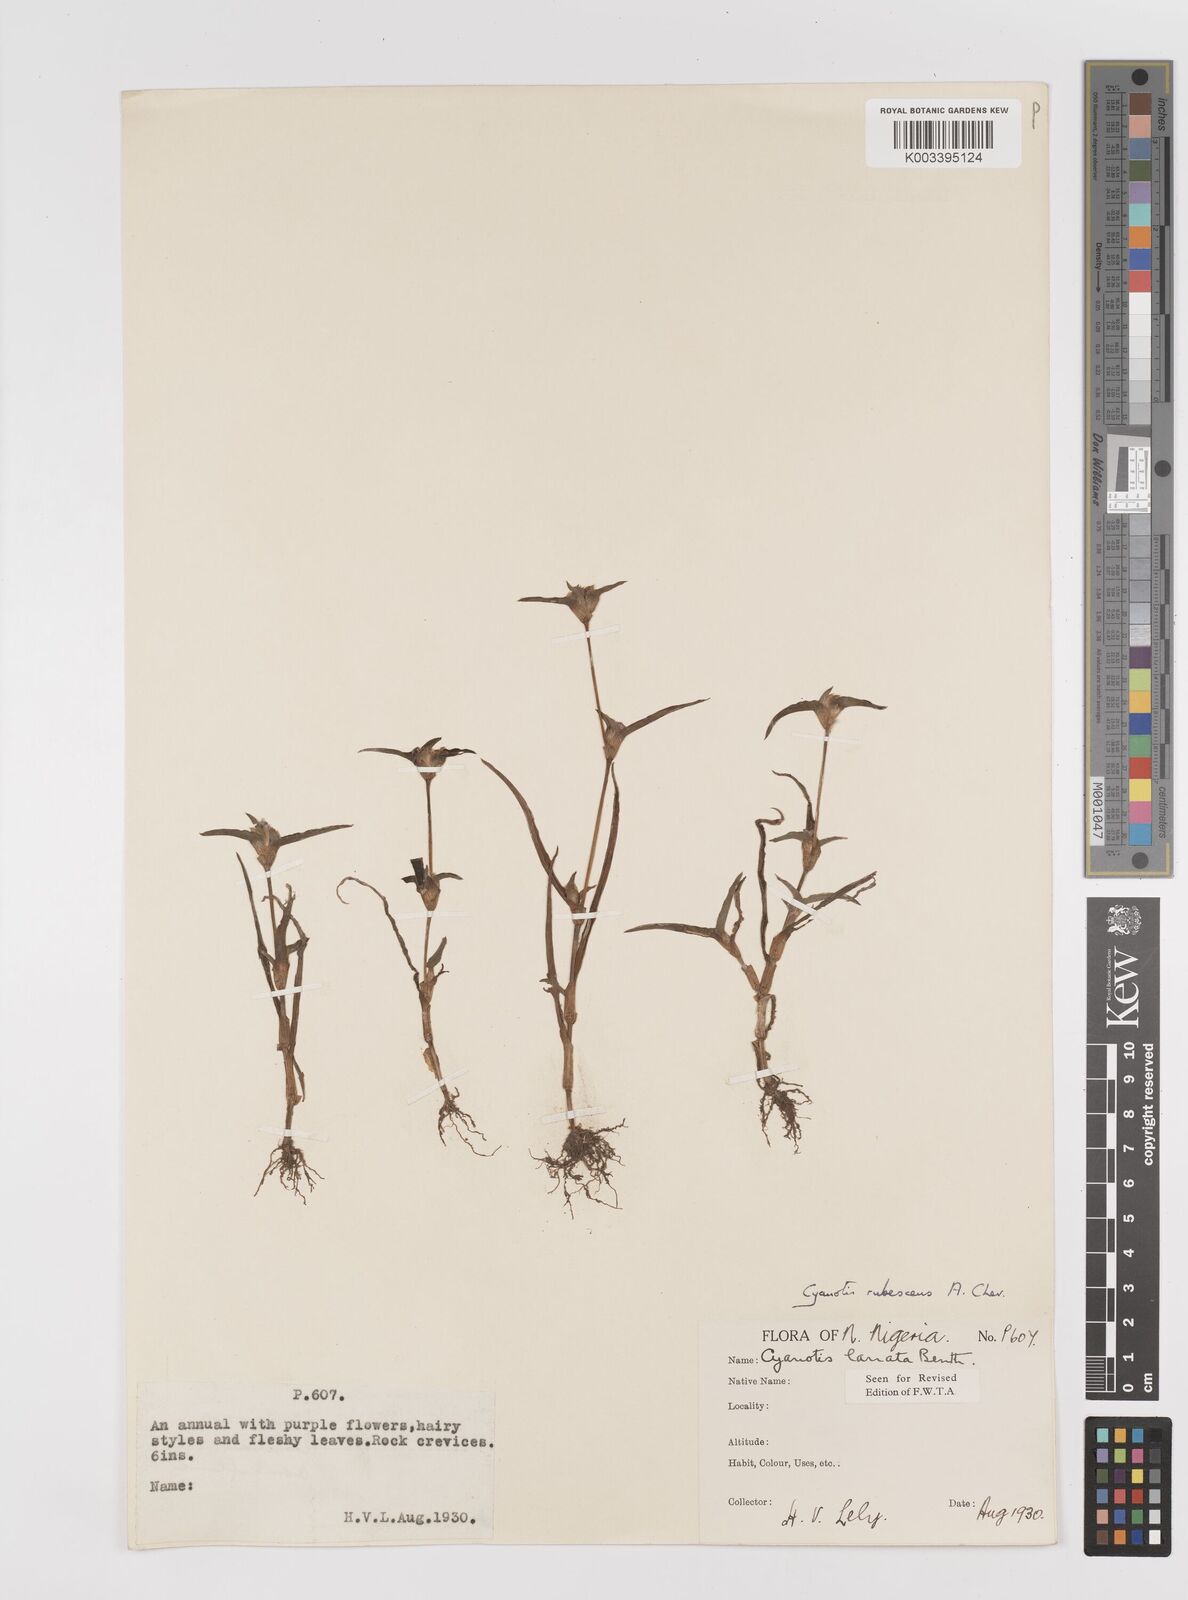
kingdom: Plantae
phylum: Tracheophyta
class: Liliopsida
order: Commelinales
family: Commelinaceae
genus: Cyanotis
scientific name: Cyanotis lanata
